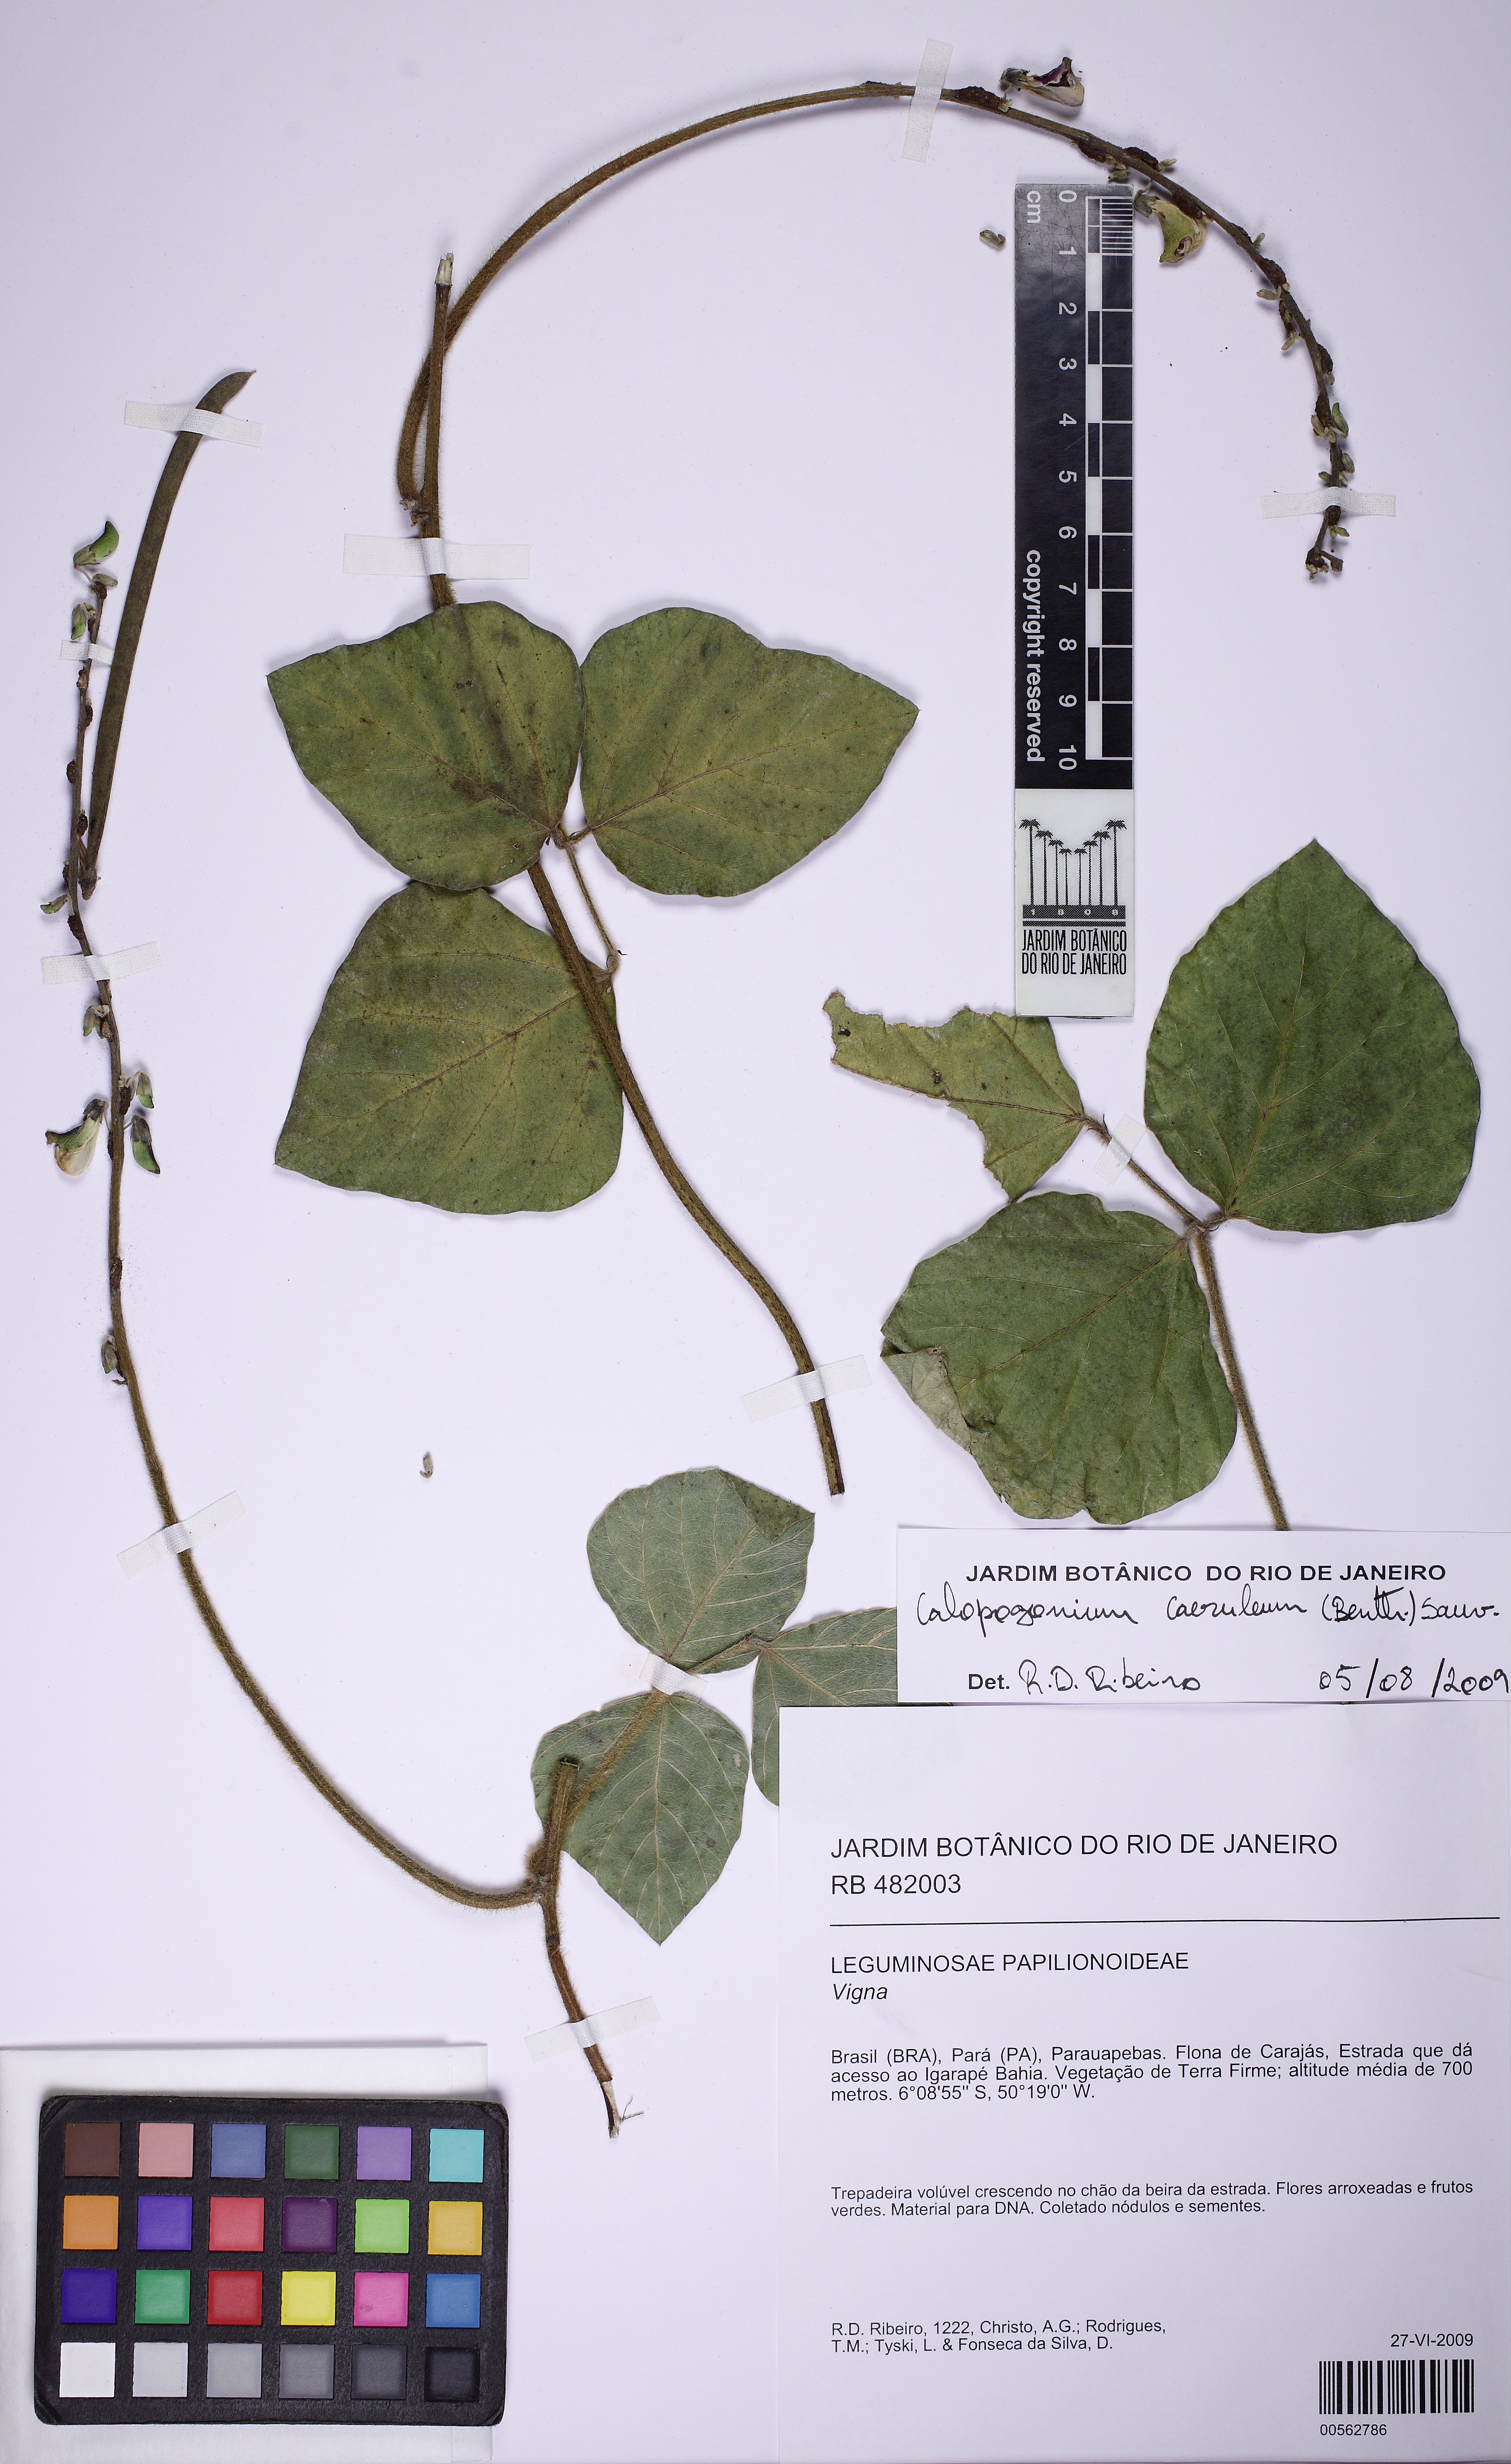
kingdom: Plantae
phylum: Tracheophyta
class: Magnoliopsida
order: Fabales
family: Fabaceae
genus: Calopogonium
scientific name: Calopogonium caeruleum
